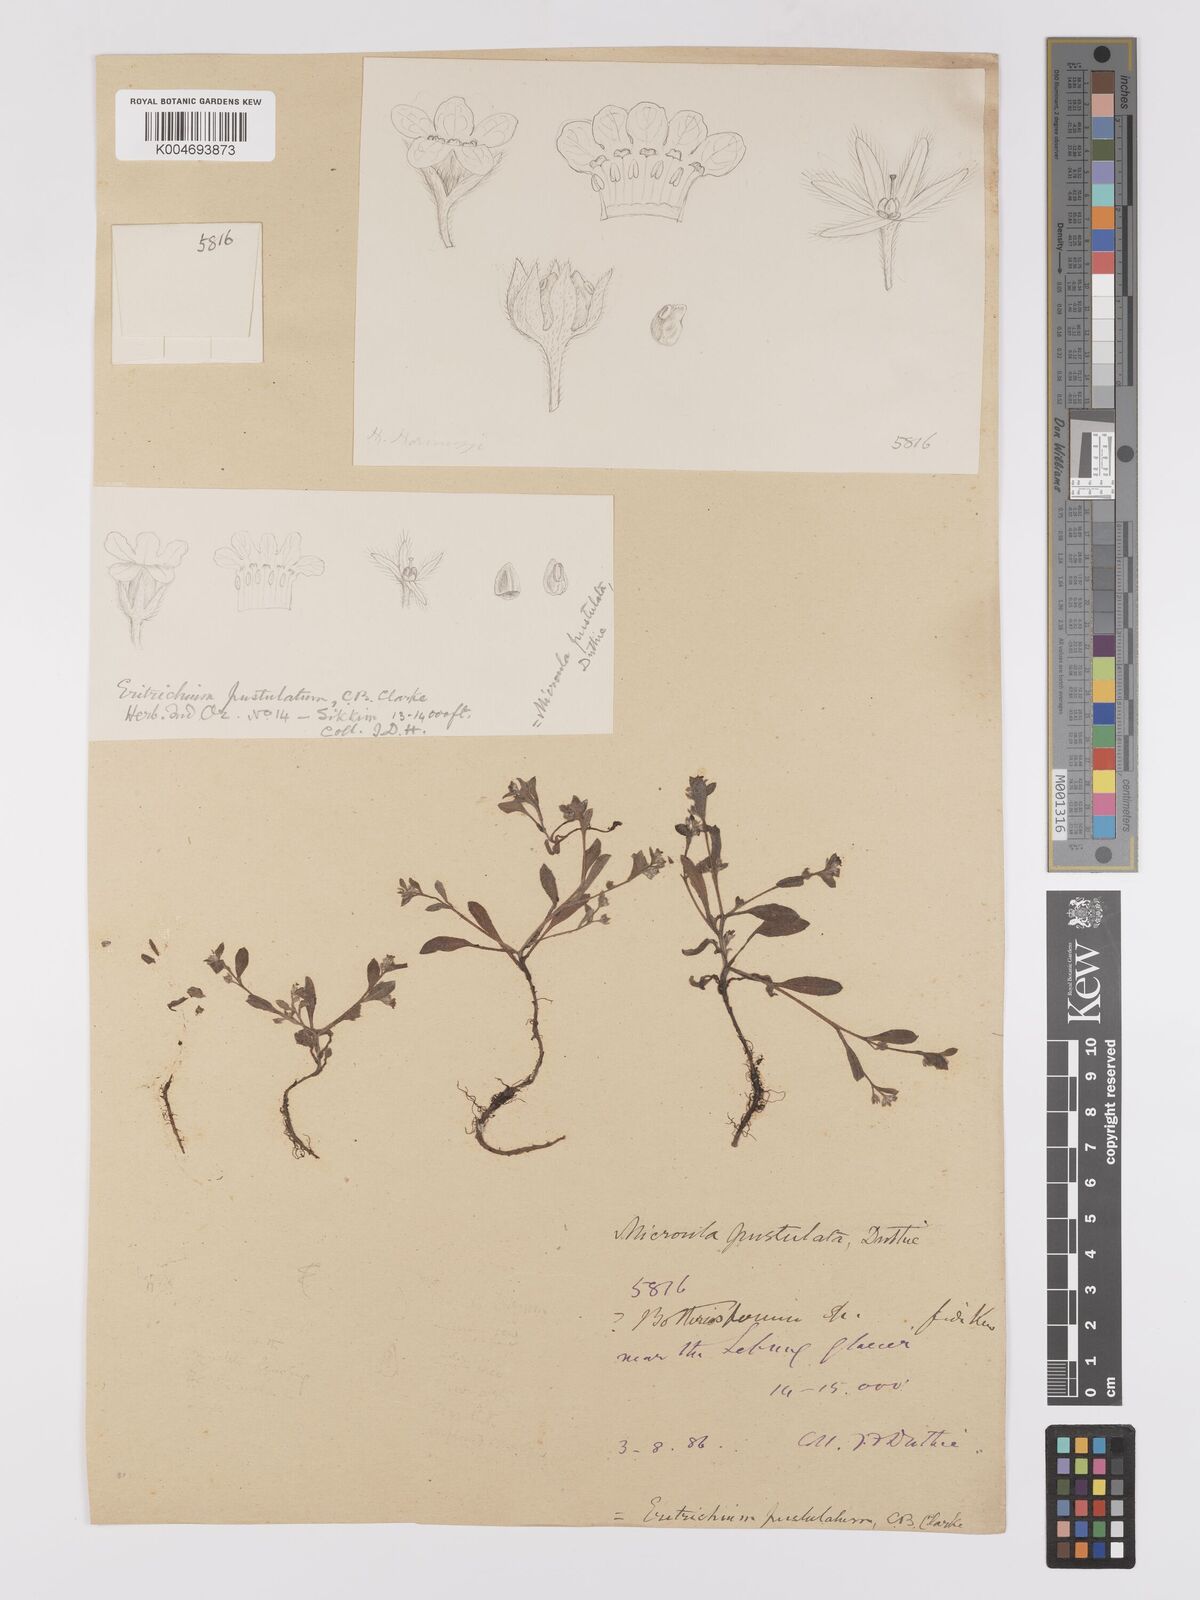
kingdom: Plantae
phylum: Tracheophyta
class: Magnoliopsida
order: Boraginales
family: Boraginaceae
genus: Microula
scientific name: Microula pustulosa
